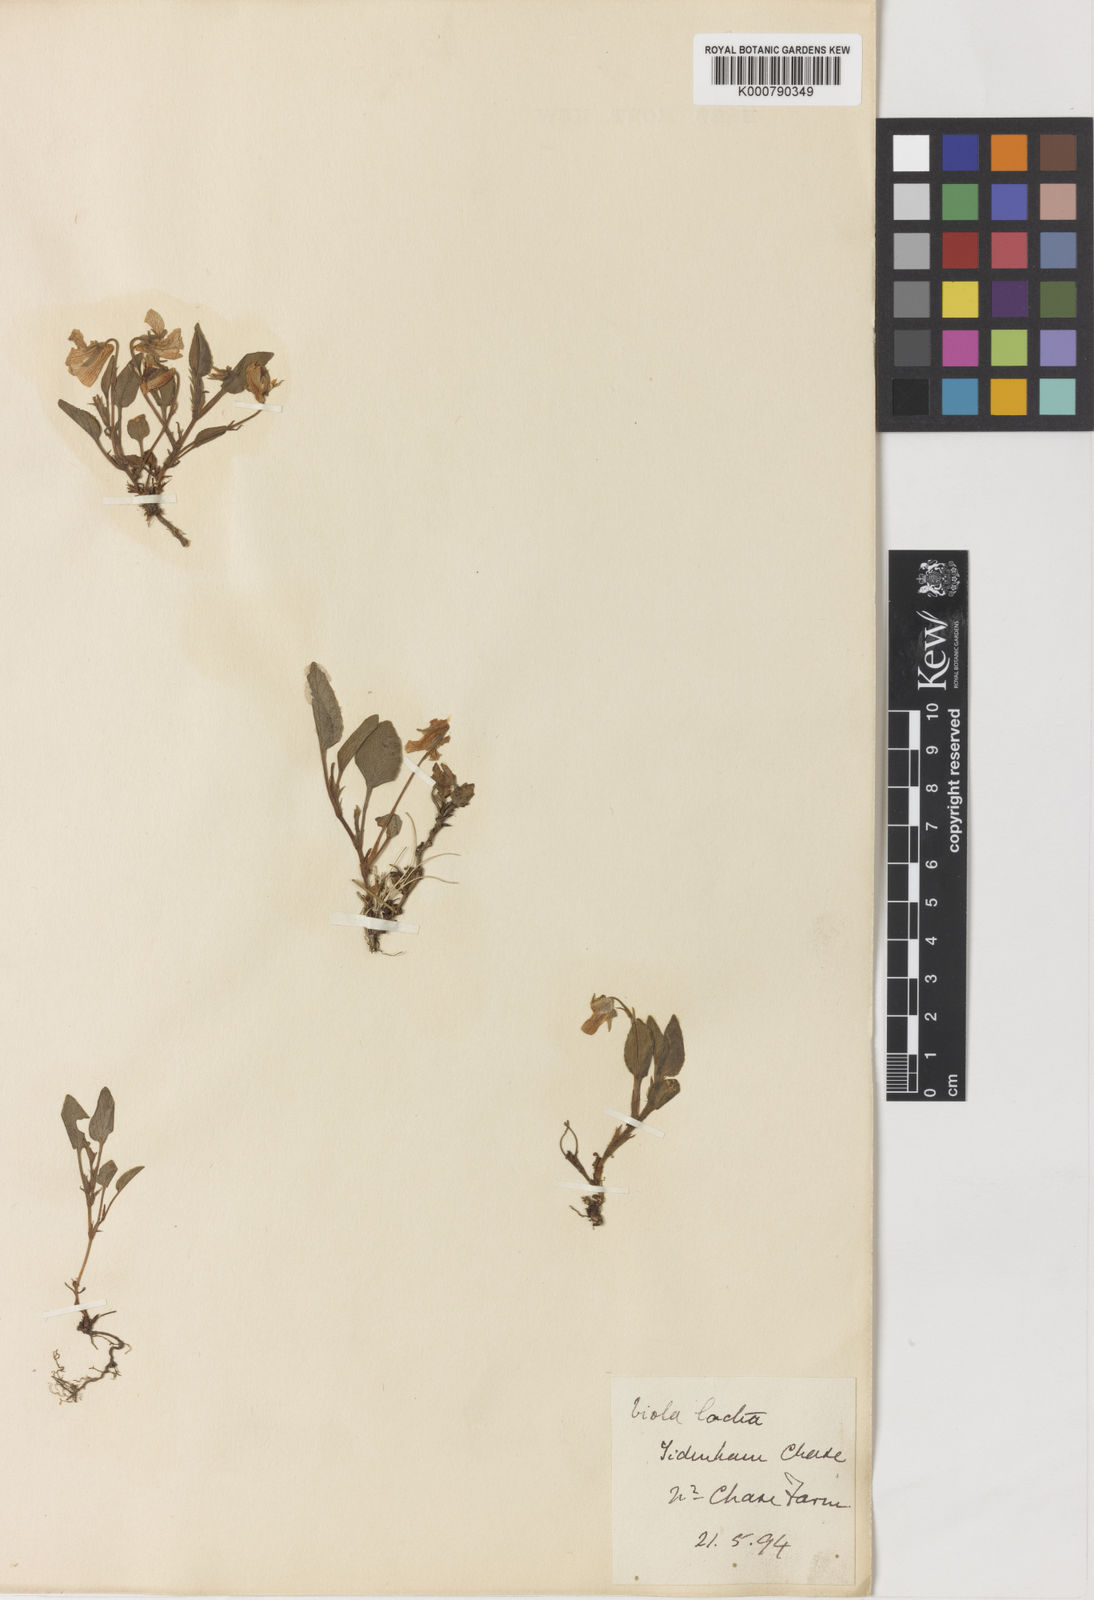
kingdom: Plantae
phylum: Tracheophyta
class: Magnoliopsida
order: Malpighiales
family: Violaceae
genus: Viola
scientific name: Viola lactea
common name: Pale dog-violet
